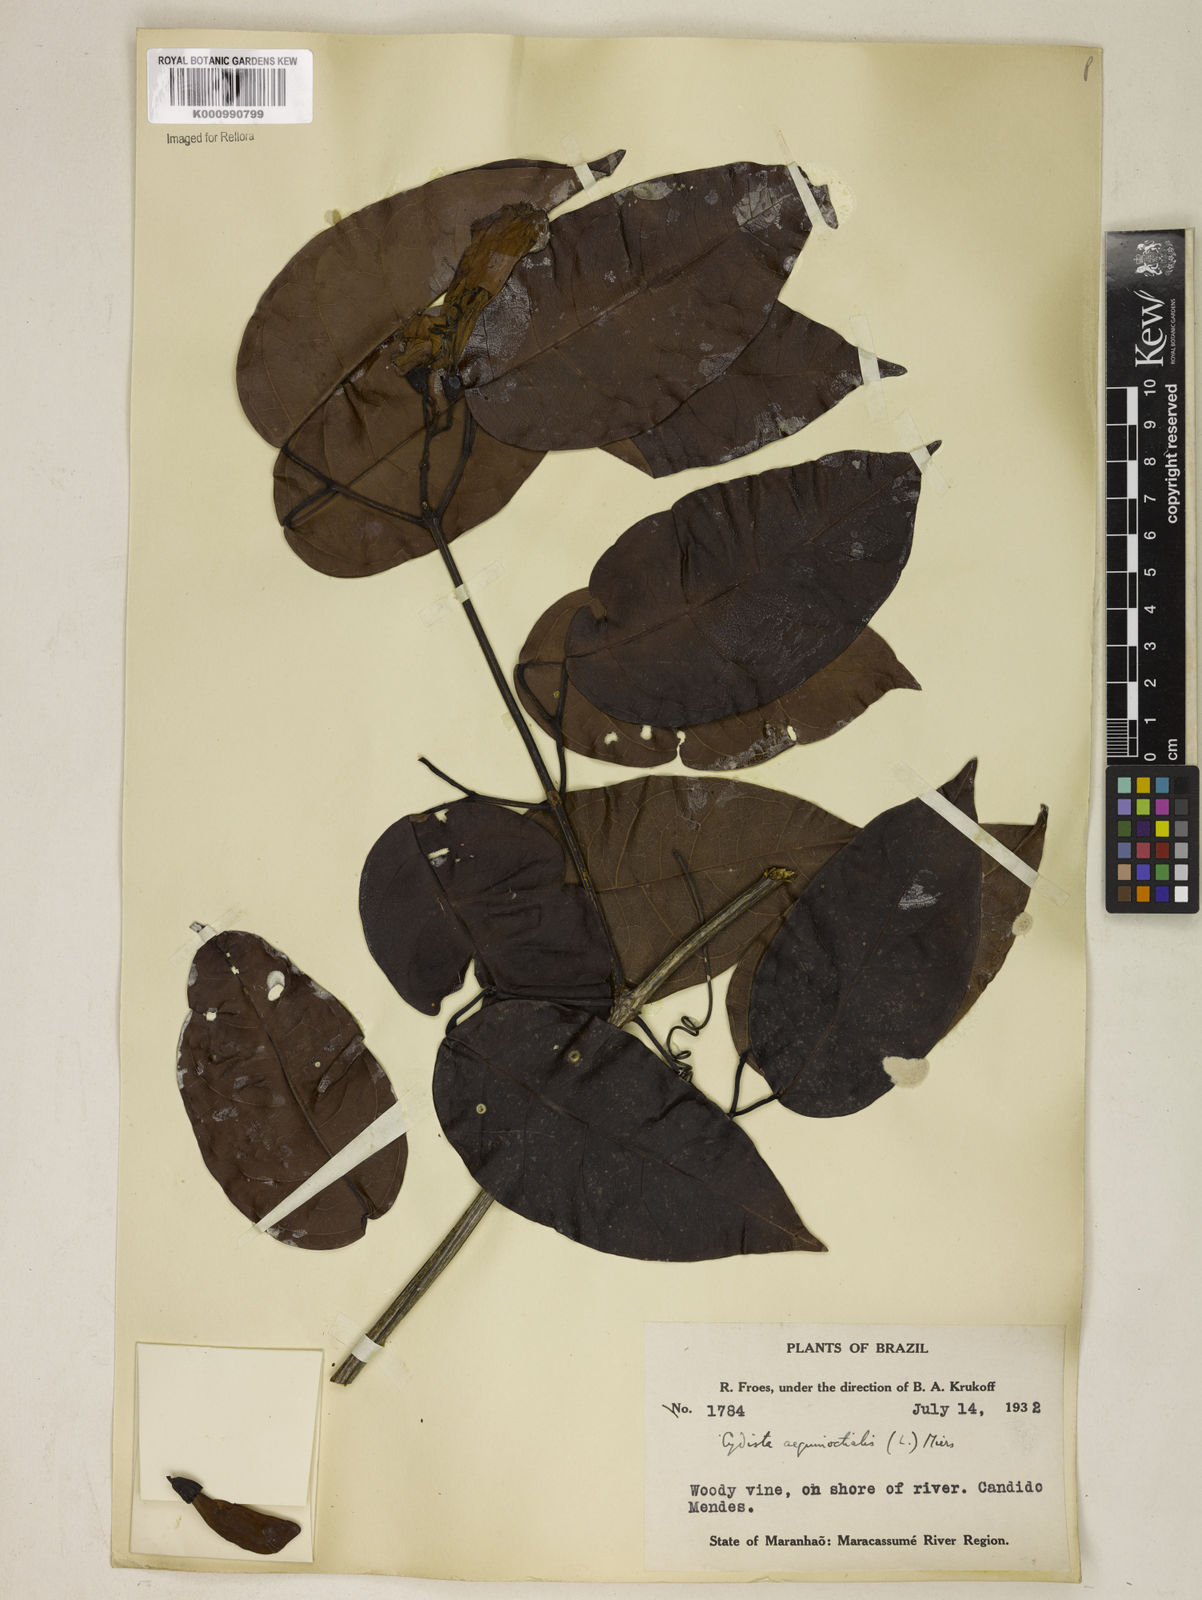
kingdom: Plantae
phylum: Tracheophyta
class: Magnoliopsida
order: Lamiales
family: Bignoniaceae
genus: Bignonia
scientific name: Bignonia aequinoctialis
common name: Garlicvine
